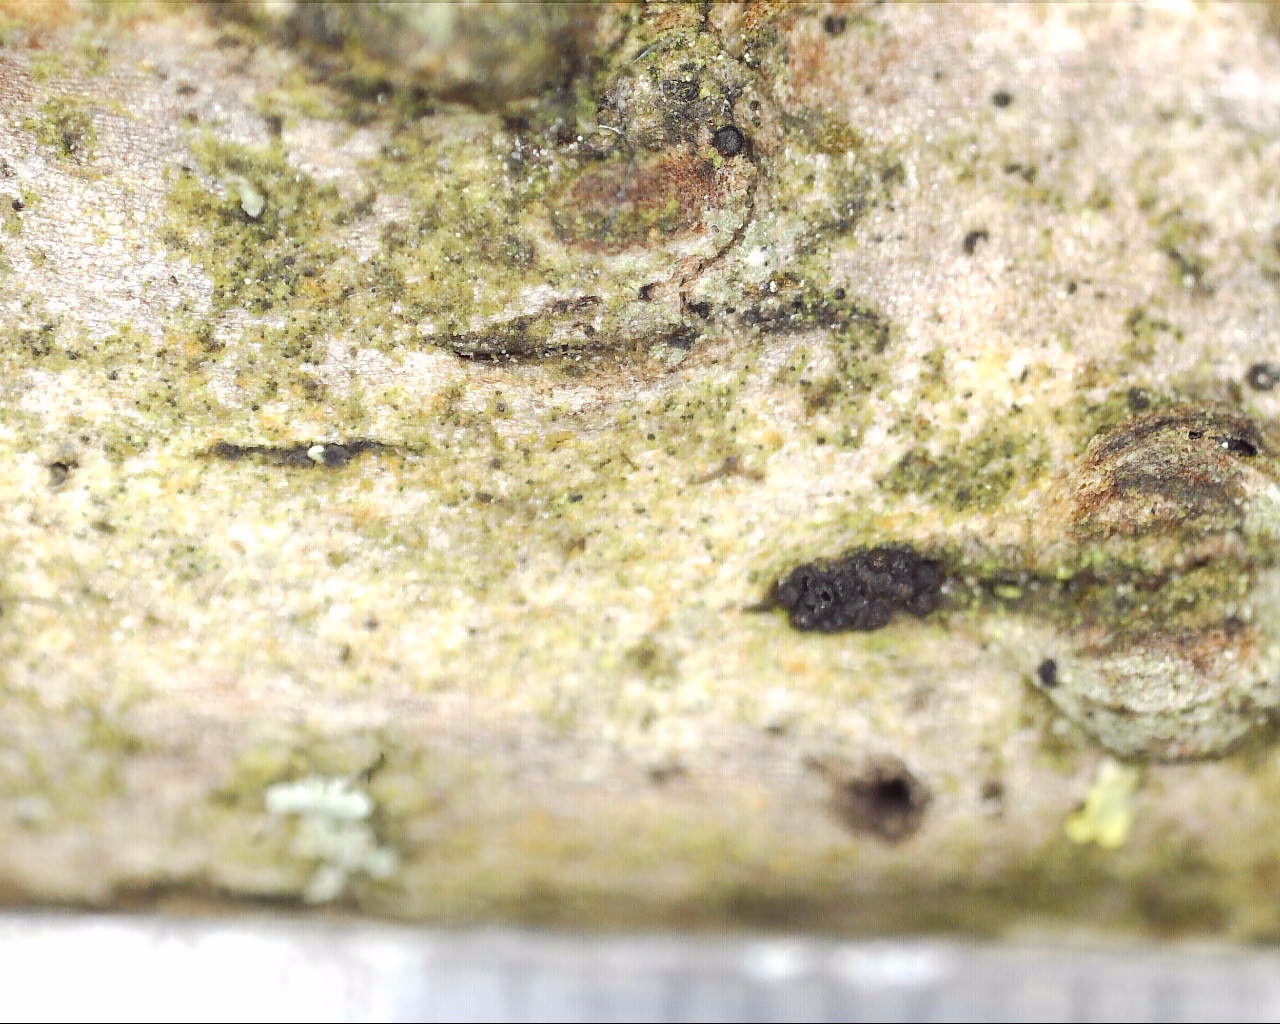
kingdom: Fungi
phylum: Ascomycota
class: Sordariomycetes
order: Hypocreales
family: Nectriaceae
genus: Fusarium
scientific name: Fusarium roseum
